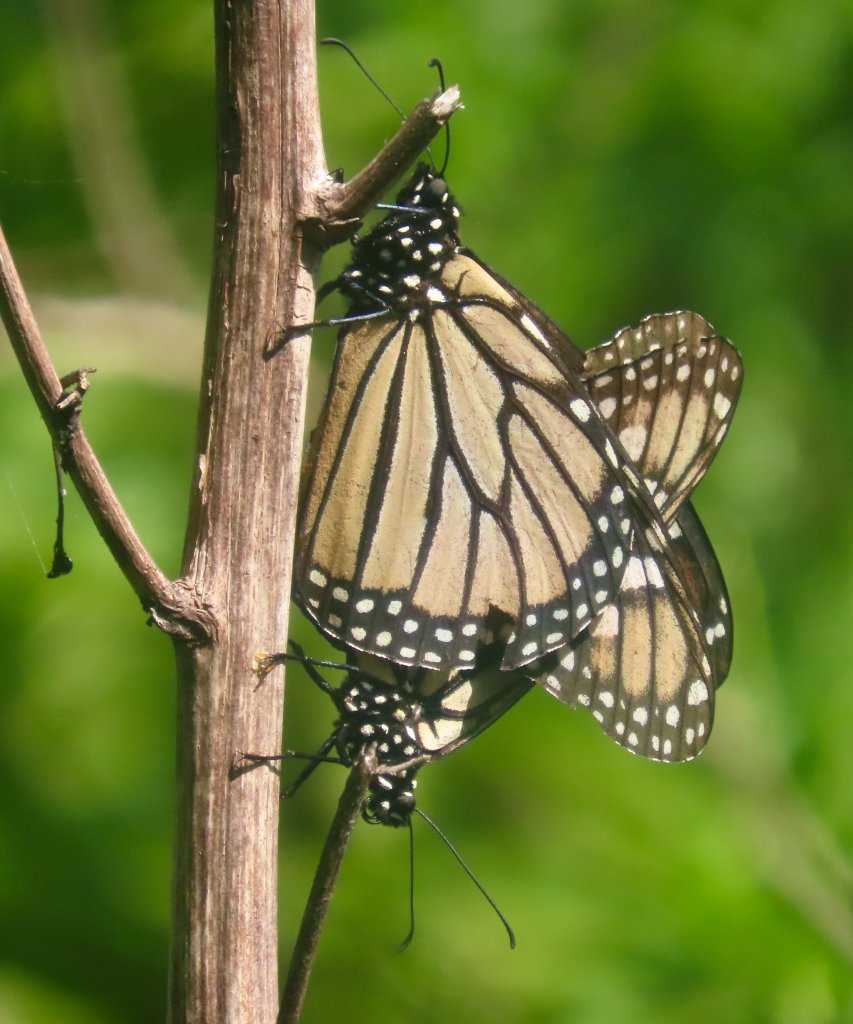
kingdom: Animalia
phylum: Arthropoda
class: Insecta
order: Lepidoptera
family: Nymphalidae
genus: Danaus
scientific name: Danaus plexippus
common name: Monarch
